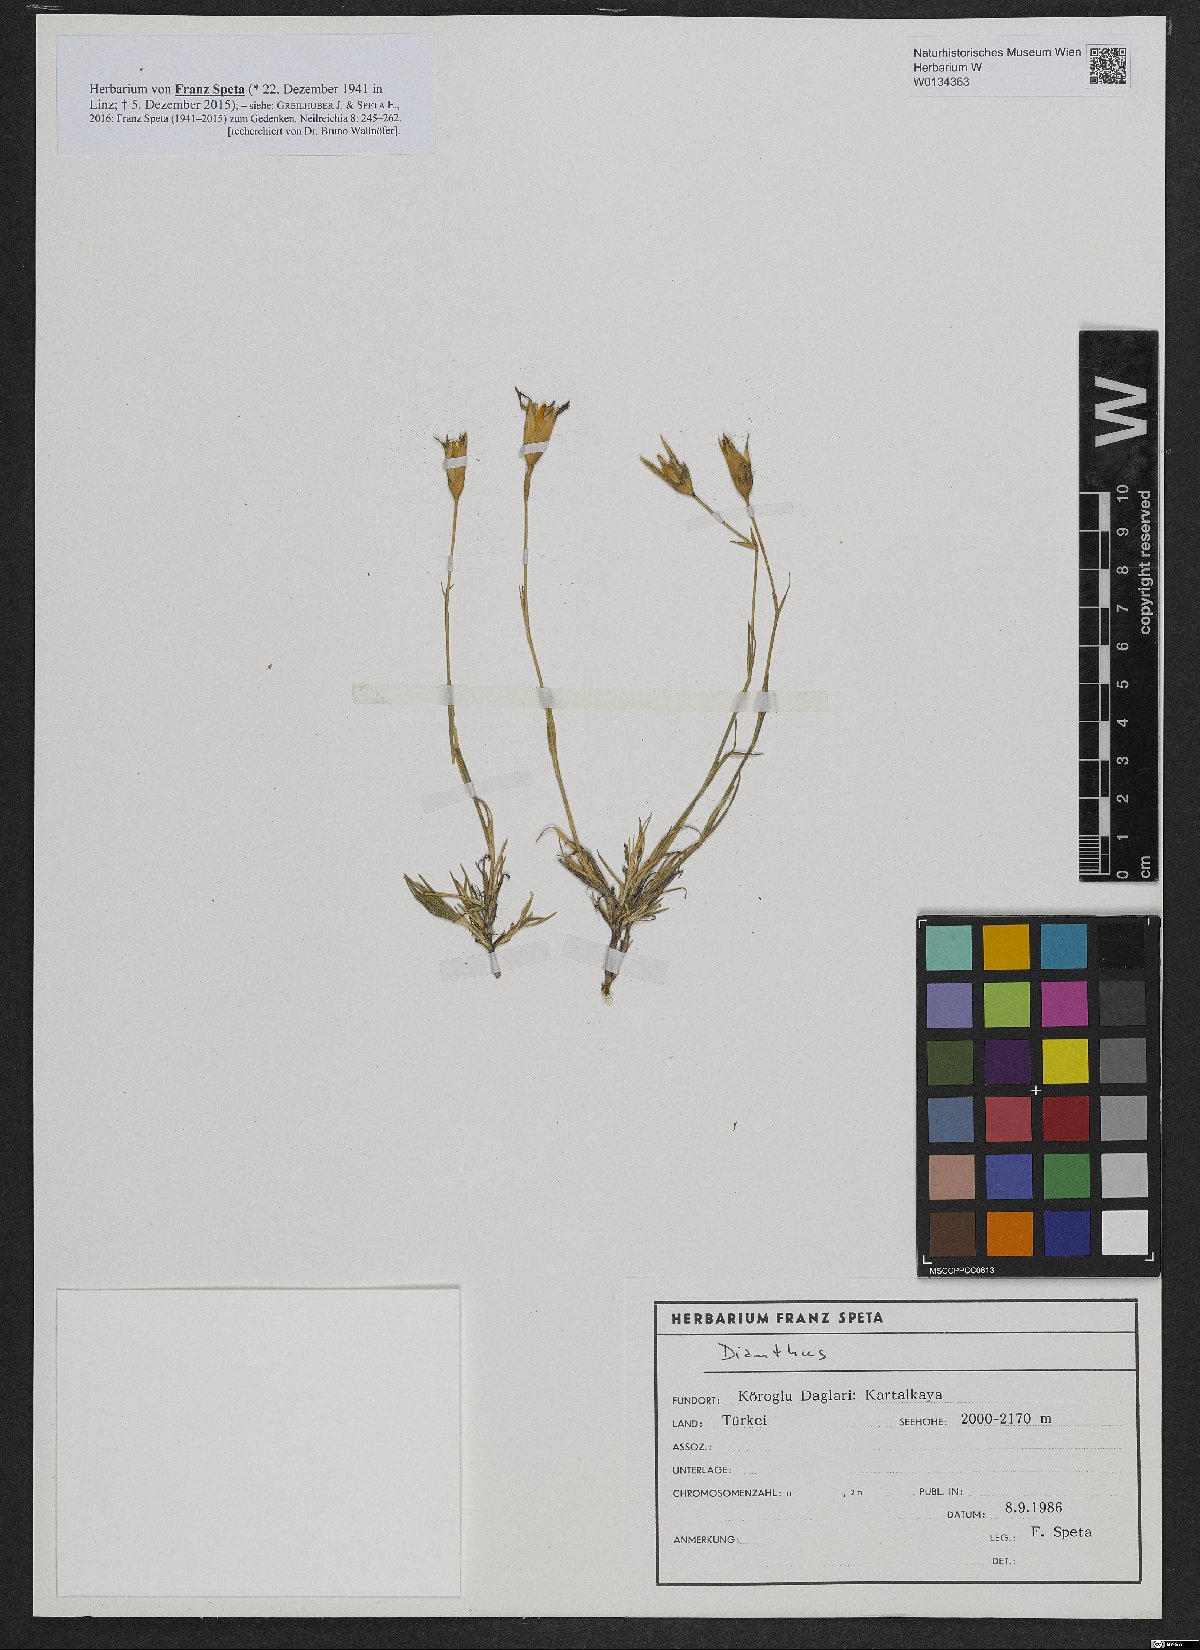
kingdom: Plantae
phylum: Tracheophyta
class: Magnoliopsida
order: Caryophyllales
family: Caryophyllaceae
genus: Dianthus
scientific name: Dianthus
